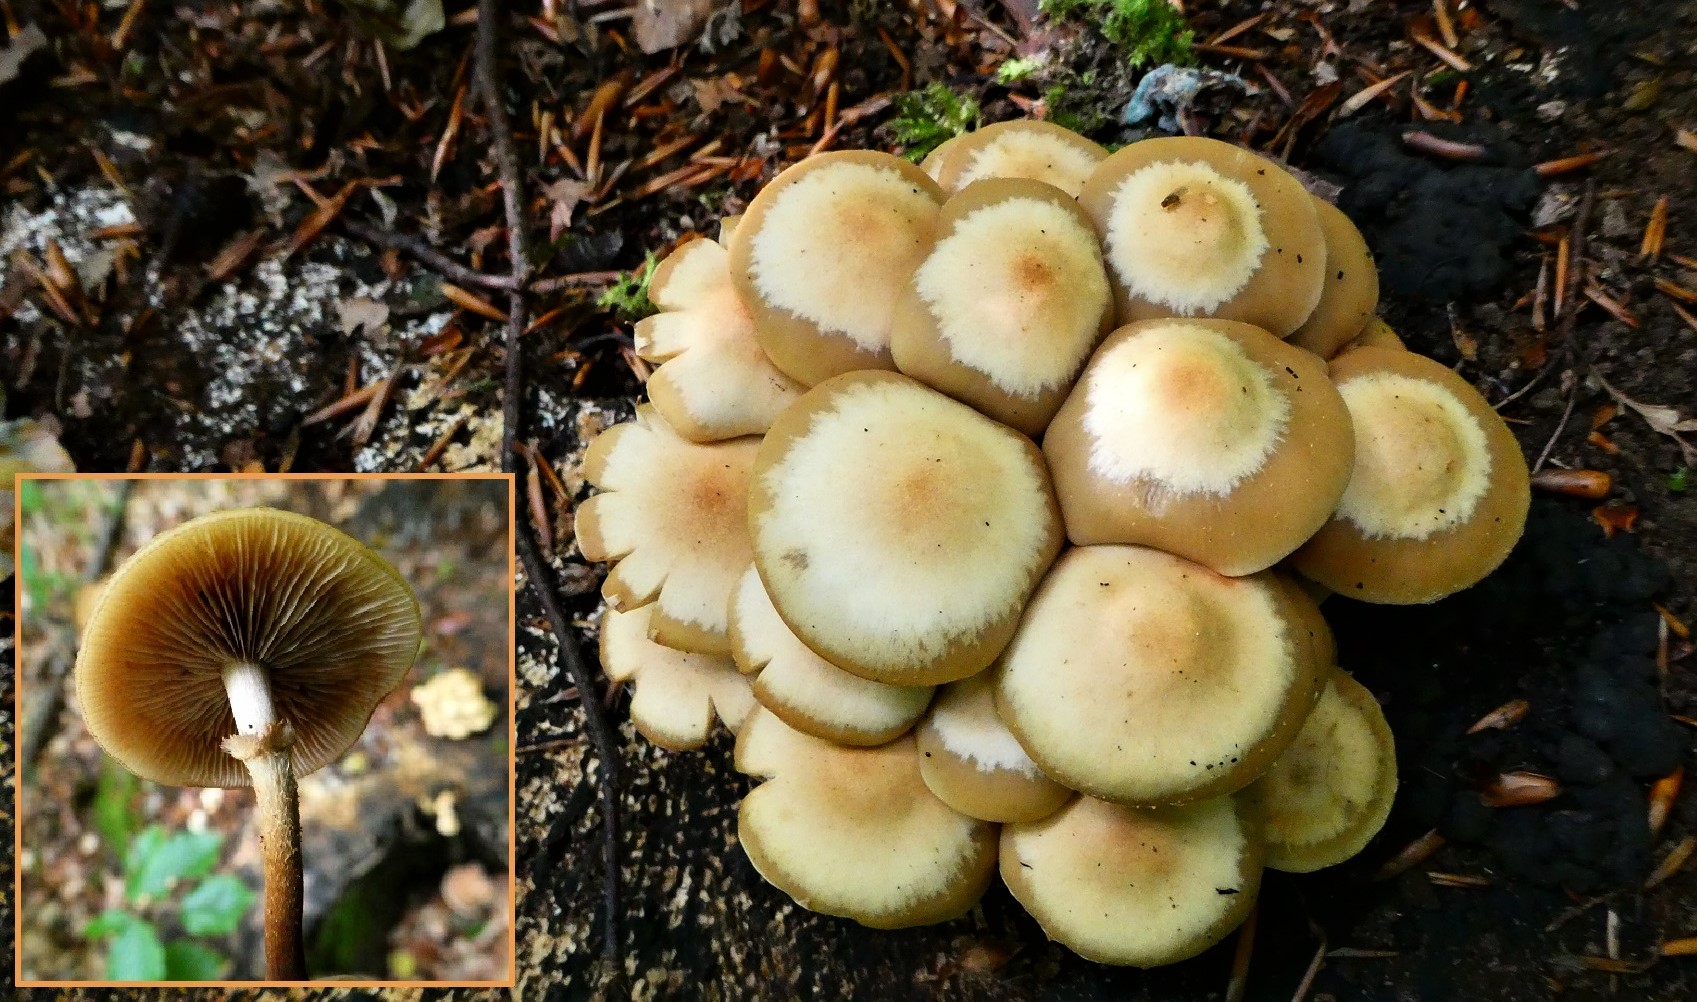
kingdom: Fungi
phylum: Basidiomycota
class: Agaricomycetes
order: Agaricales
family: Strophariaceae
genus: Kuehneromyces
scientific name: Kuehneromyces mutabilis
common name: foranderlig skælhat
